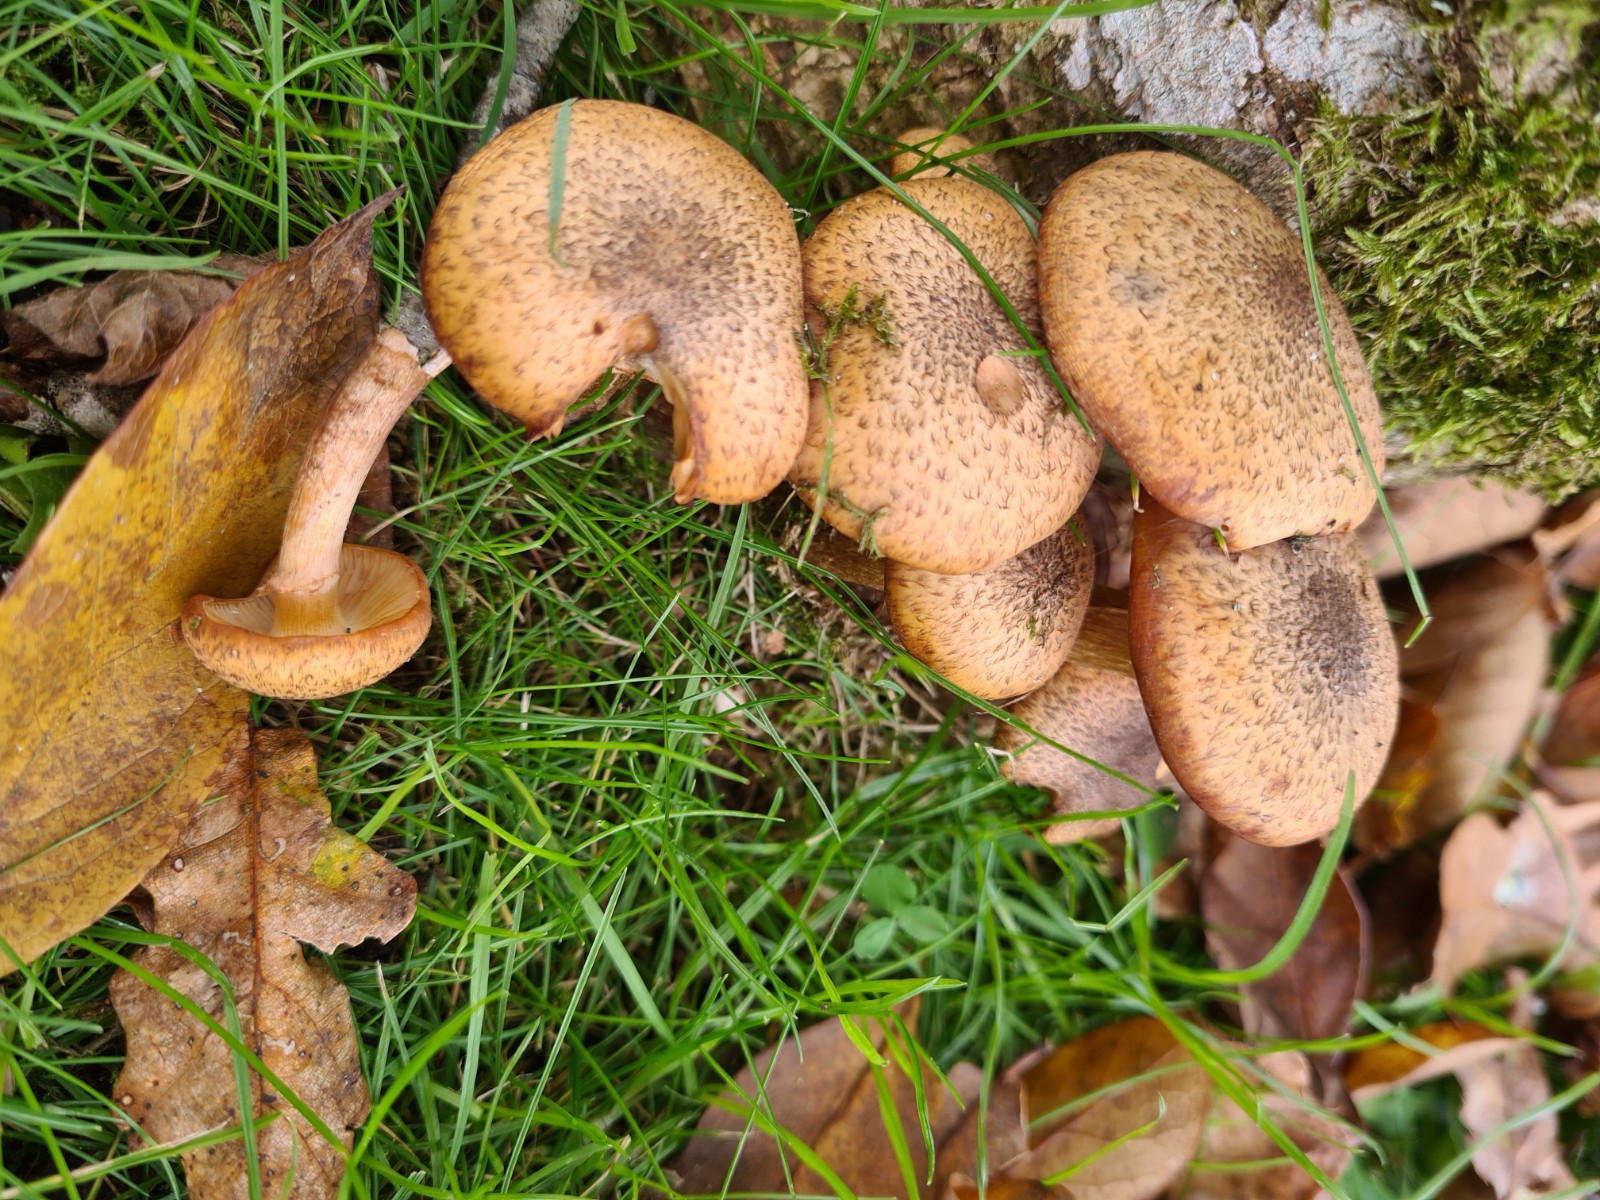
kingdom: Fungi
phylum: Basidiomycota
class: Agaricomycetes
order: Agaricales
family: Physalacriaceae
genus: Armillaria
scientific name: Armillaria
